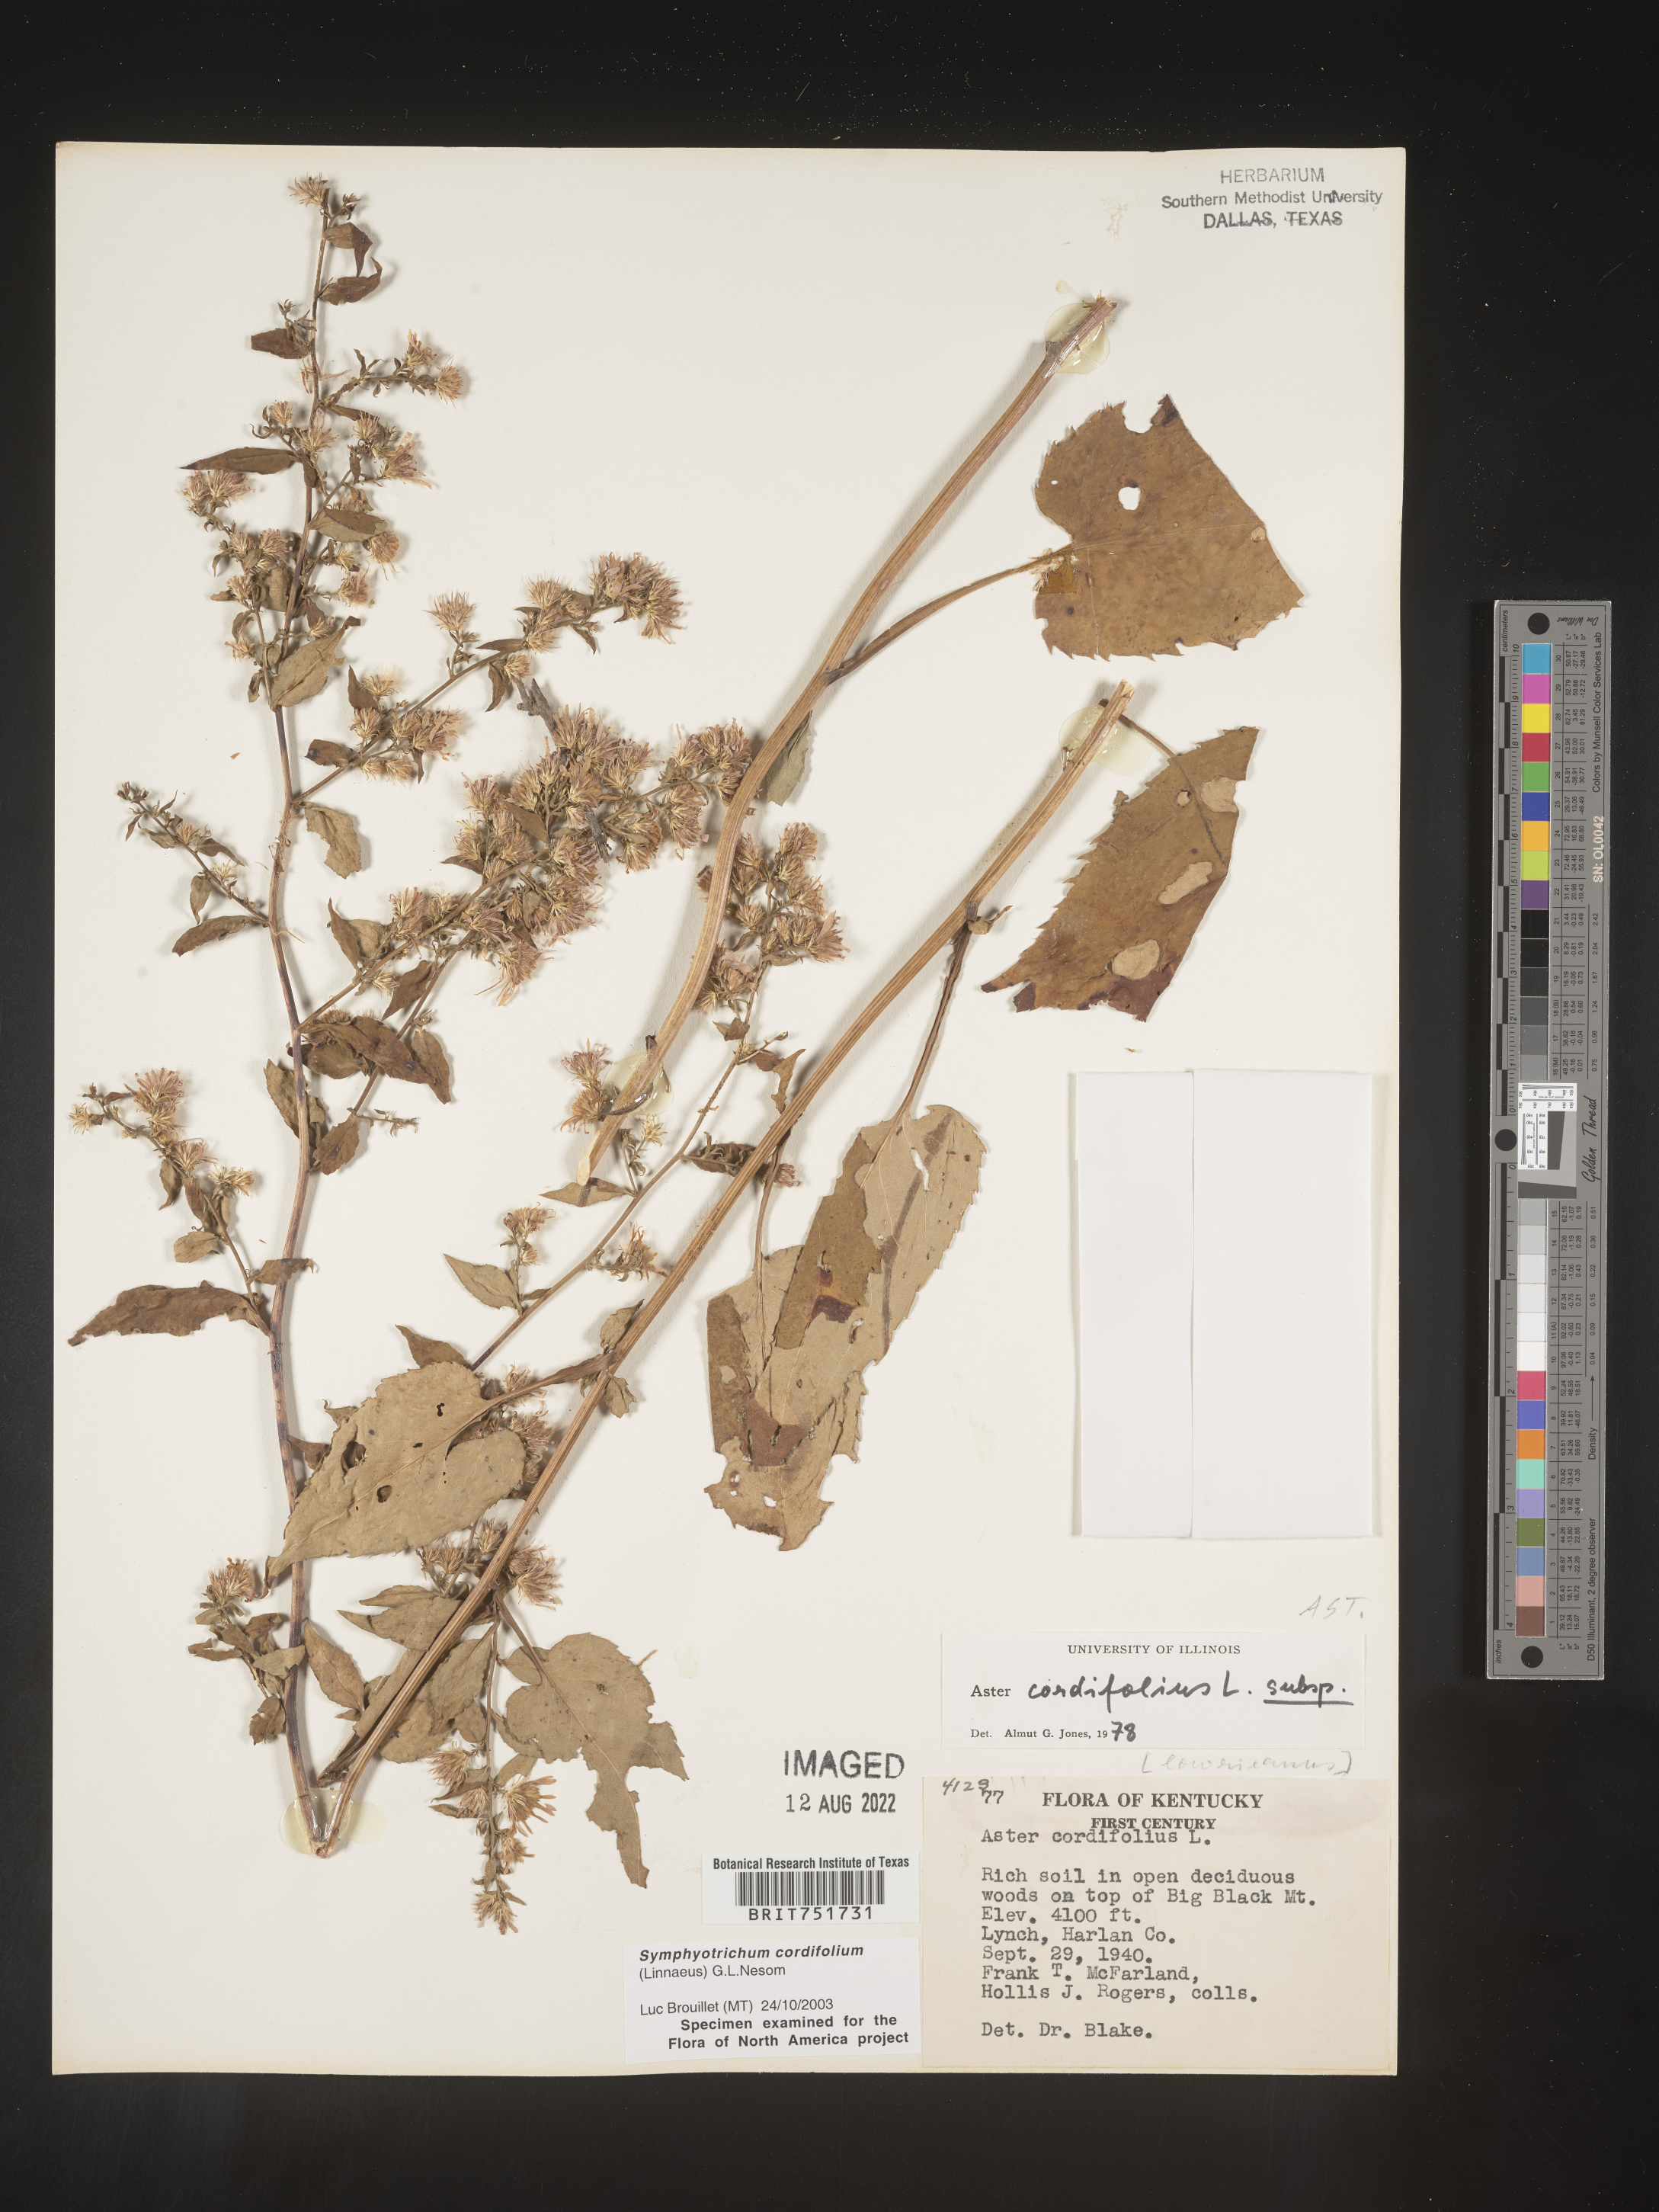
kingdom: Plantae
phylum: Tracheophyta
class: Magnoliopsida
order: Asterales
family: Asteraceae
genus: Symphyotrichum
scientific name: Symphyotrichum cordifolium
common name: Beeweed
